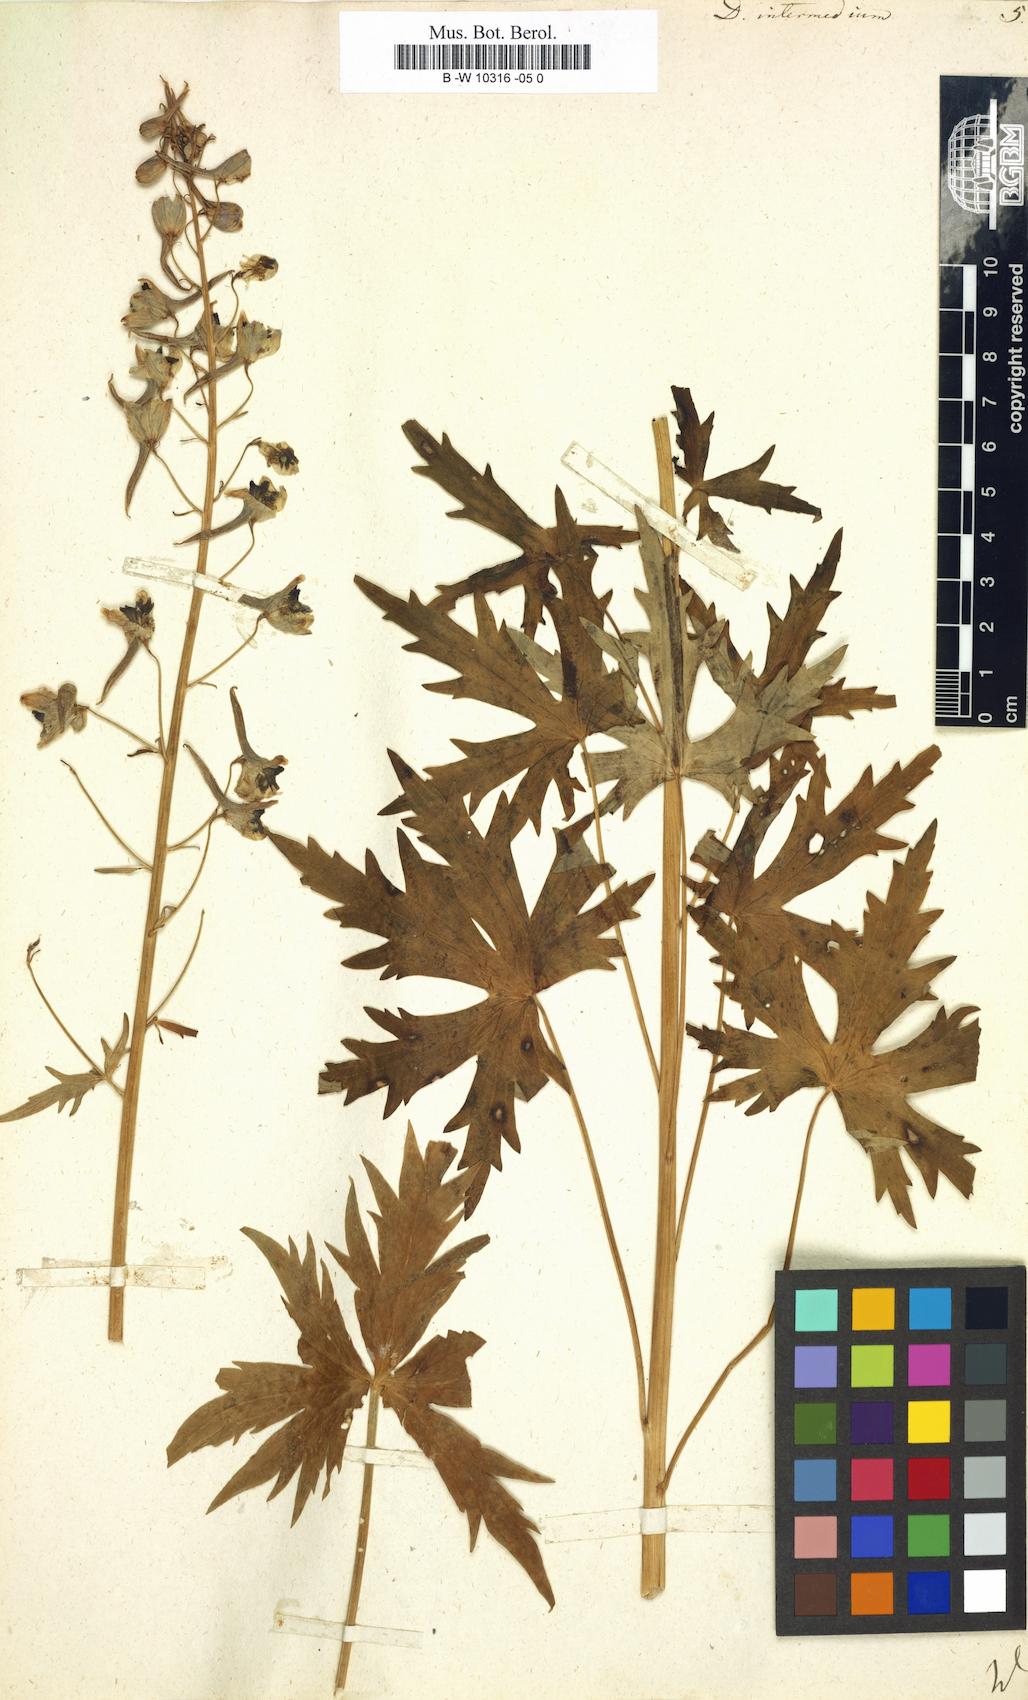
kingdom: Plantae
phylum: Tracheophyta
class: Magnoliopsida
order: Ranunculales
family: Ranunculaceae
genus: Delphinium
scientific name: Delphinium elatum
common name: Candle larkspur
